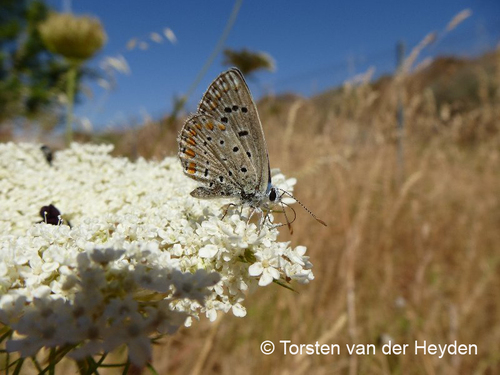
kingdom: Animalia
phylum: Arthropoda
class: Insecta
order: Lepidoptera
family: Lycaenidae
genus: Polyommatus
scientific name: Polyommatus
